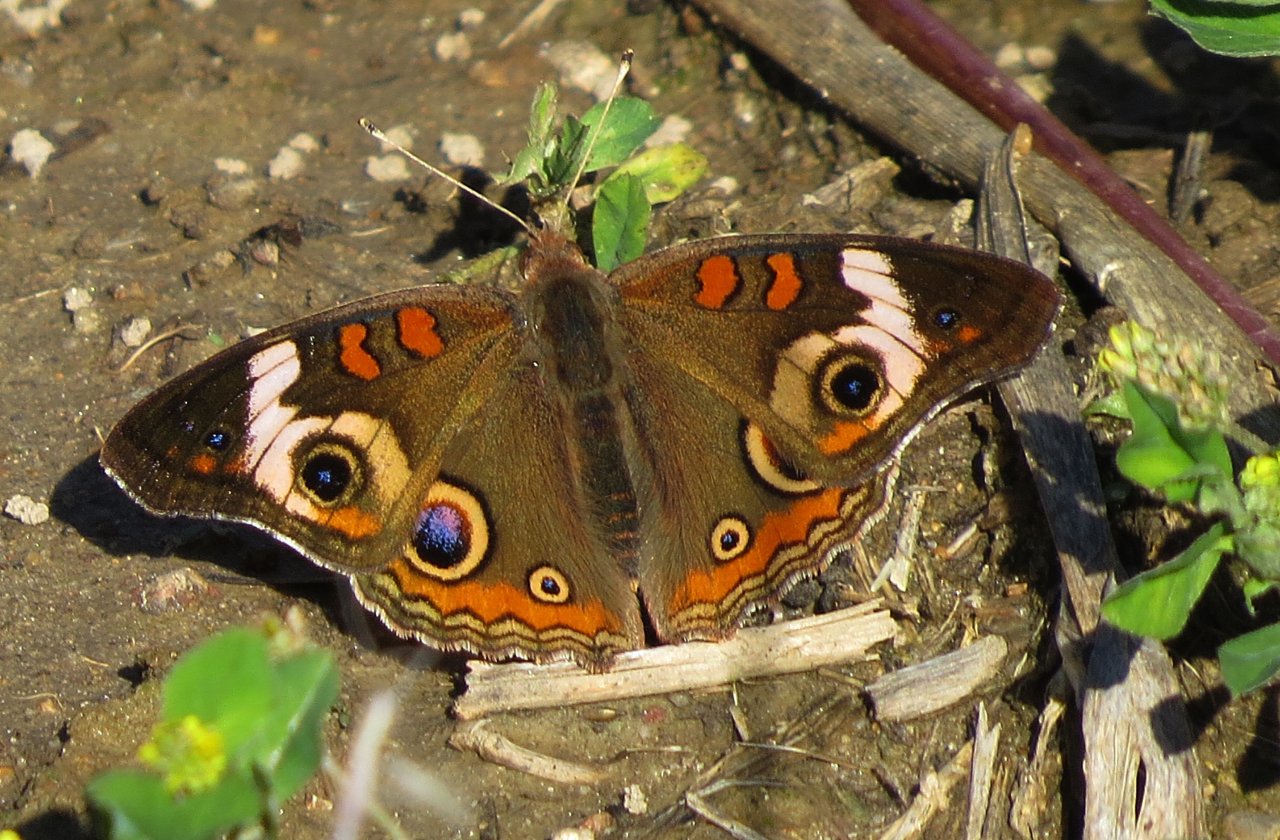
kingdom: Animalia
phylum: Arthropoda
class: Insecta
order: Lepidoptera
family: Nymphalidae
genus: Junonia
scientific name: Junonia coenia
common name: Common Buckeye
